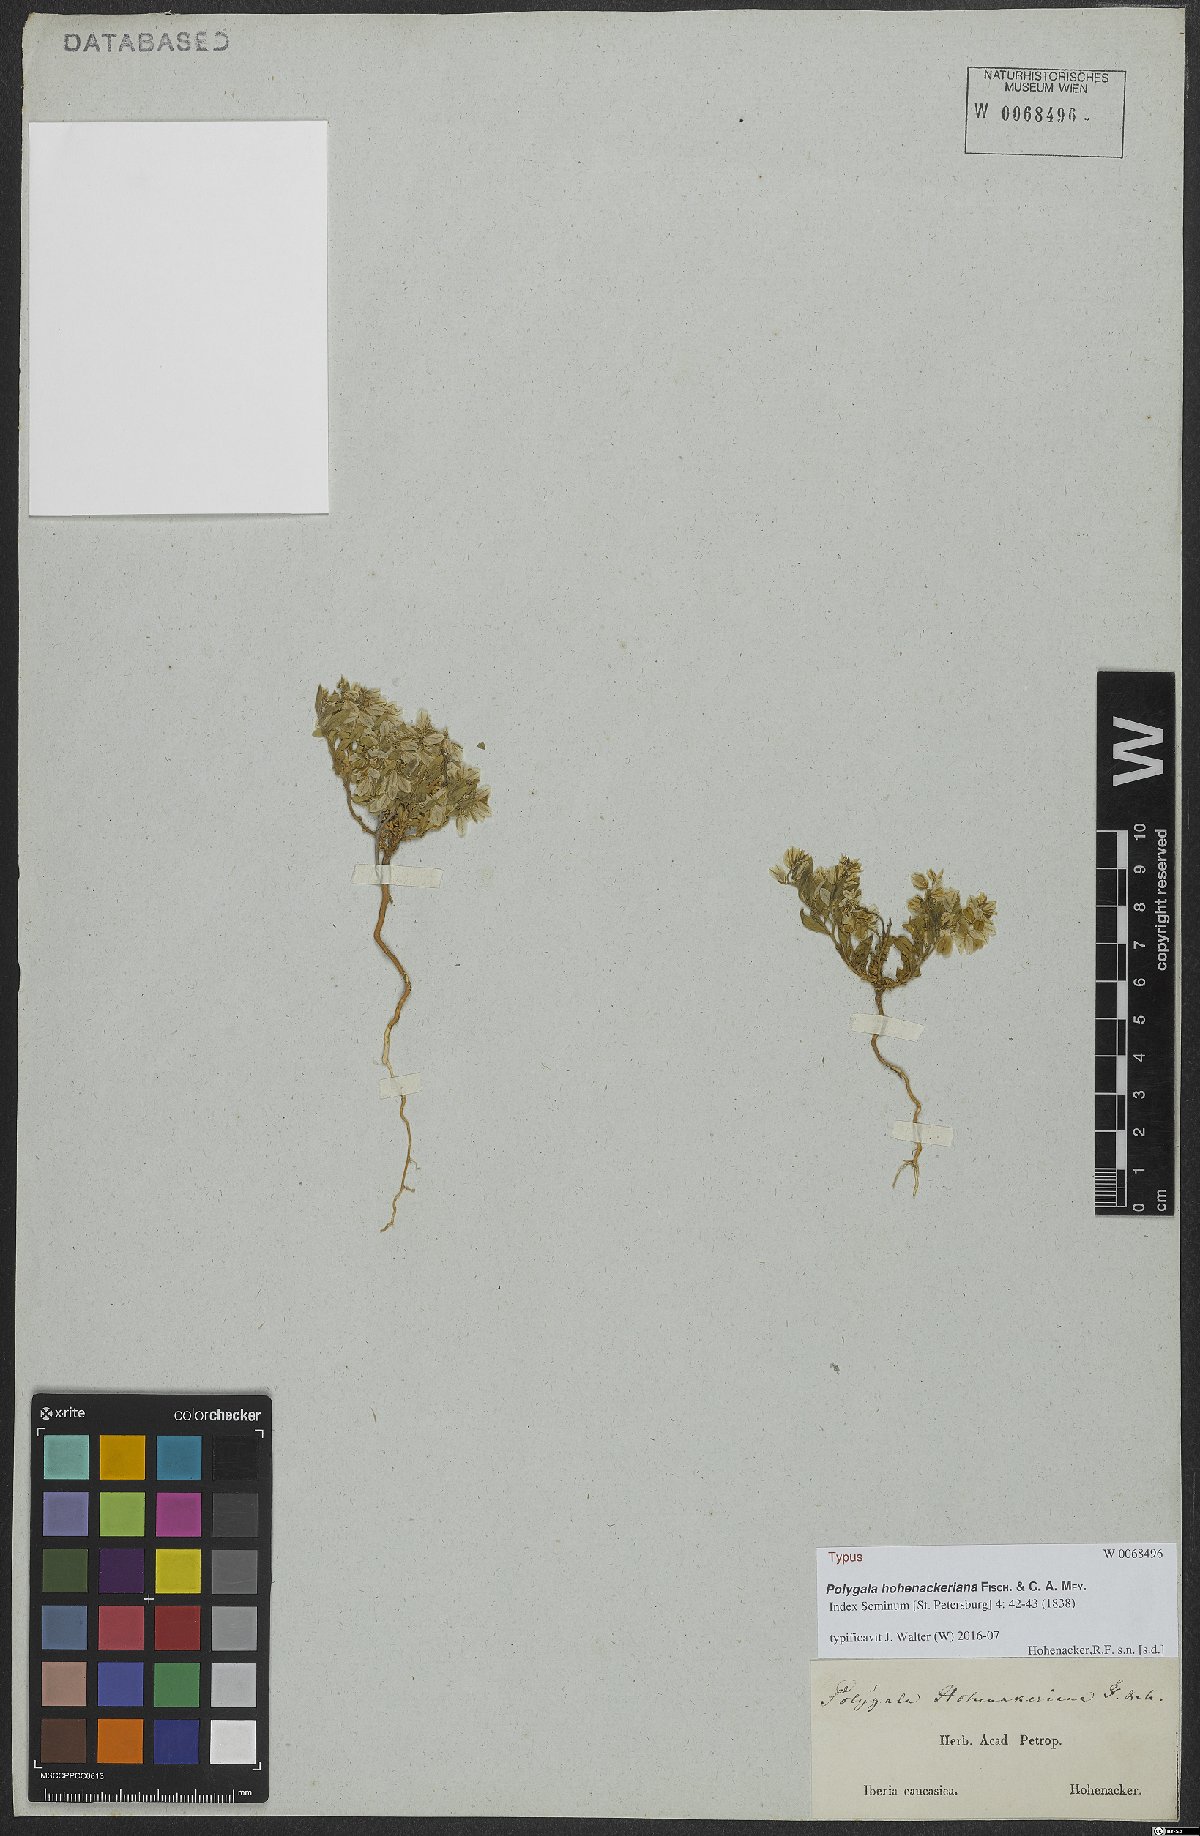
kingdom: Plantae
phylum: Tracheophyta
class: Magnoliopsida
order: Fabales
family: Polygalaceae
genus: Polygala
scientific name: Polygala hohenackeriana
